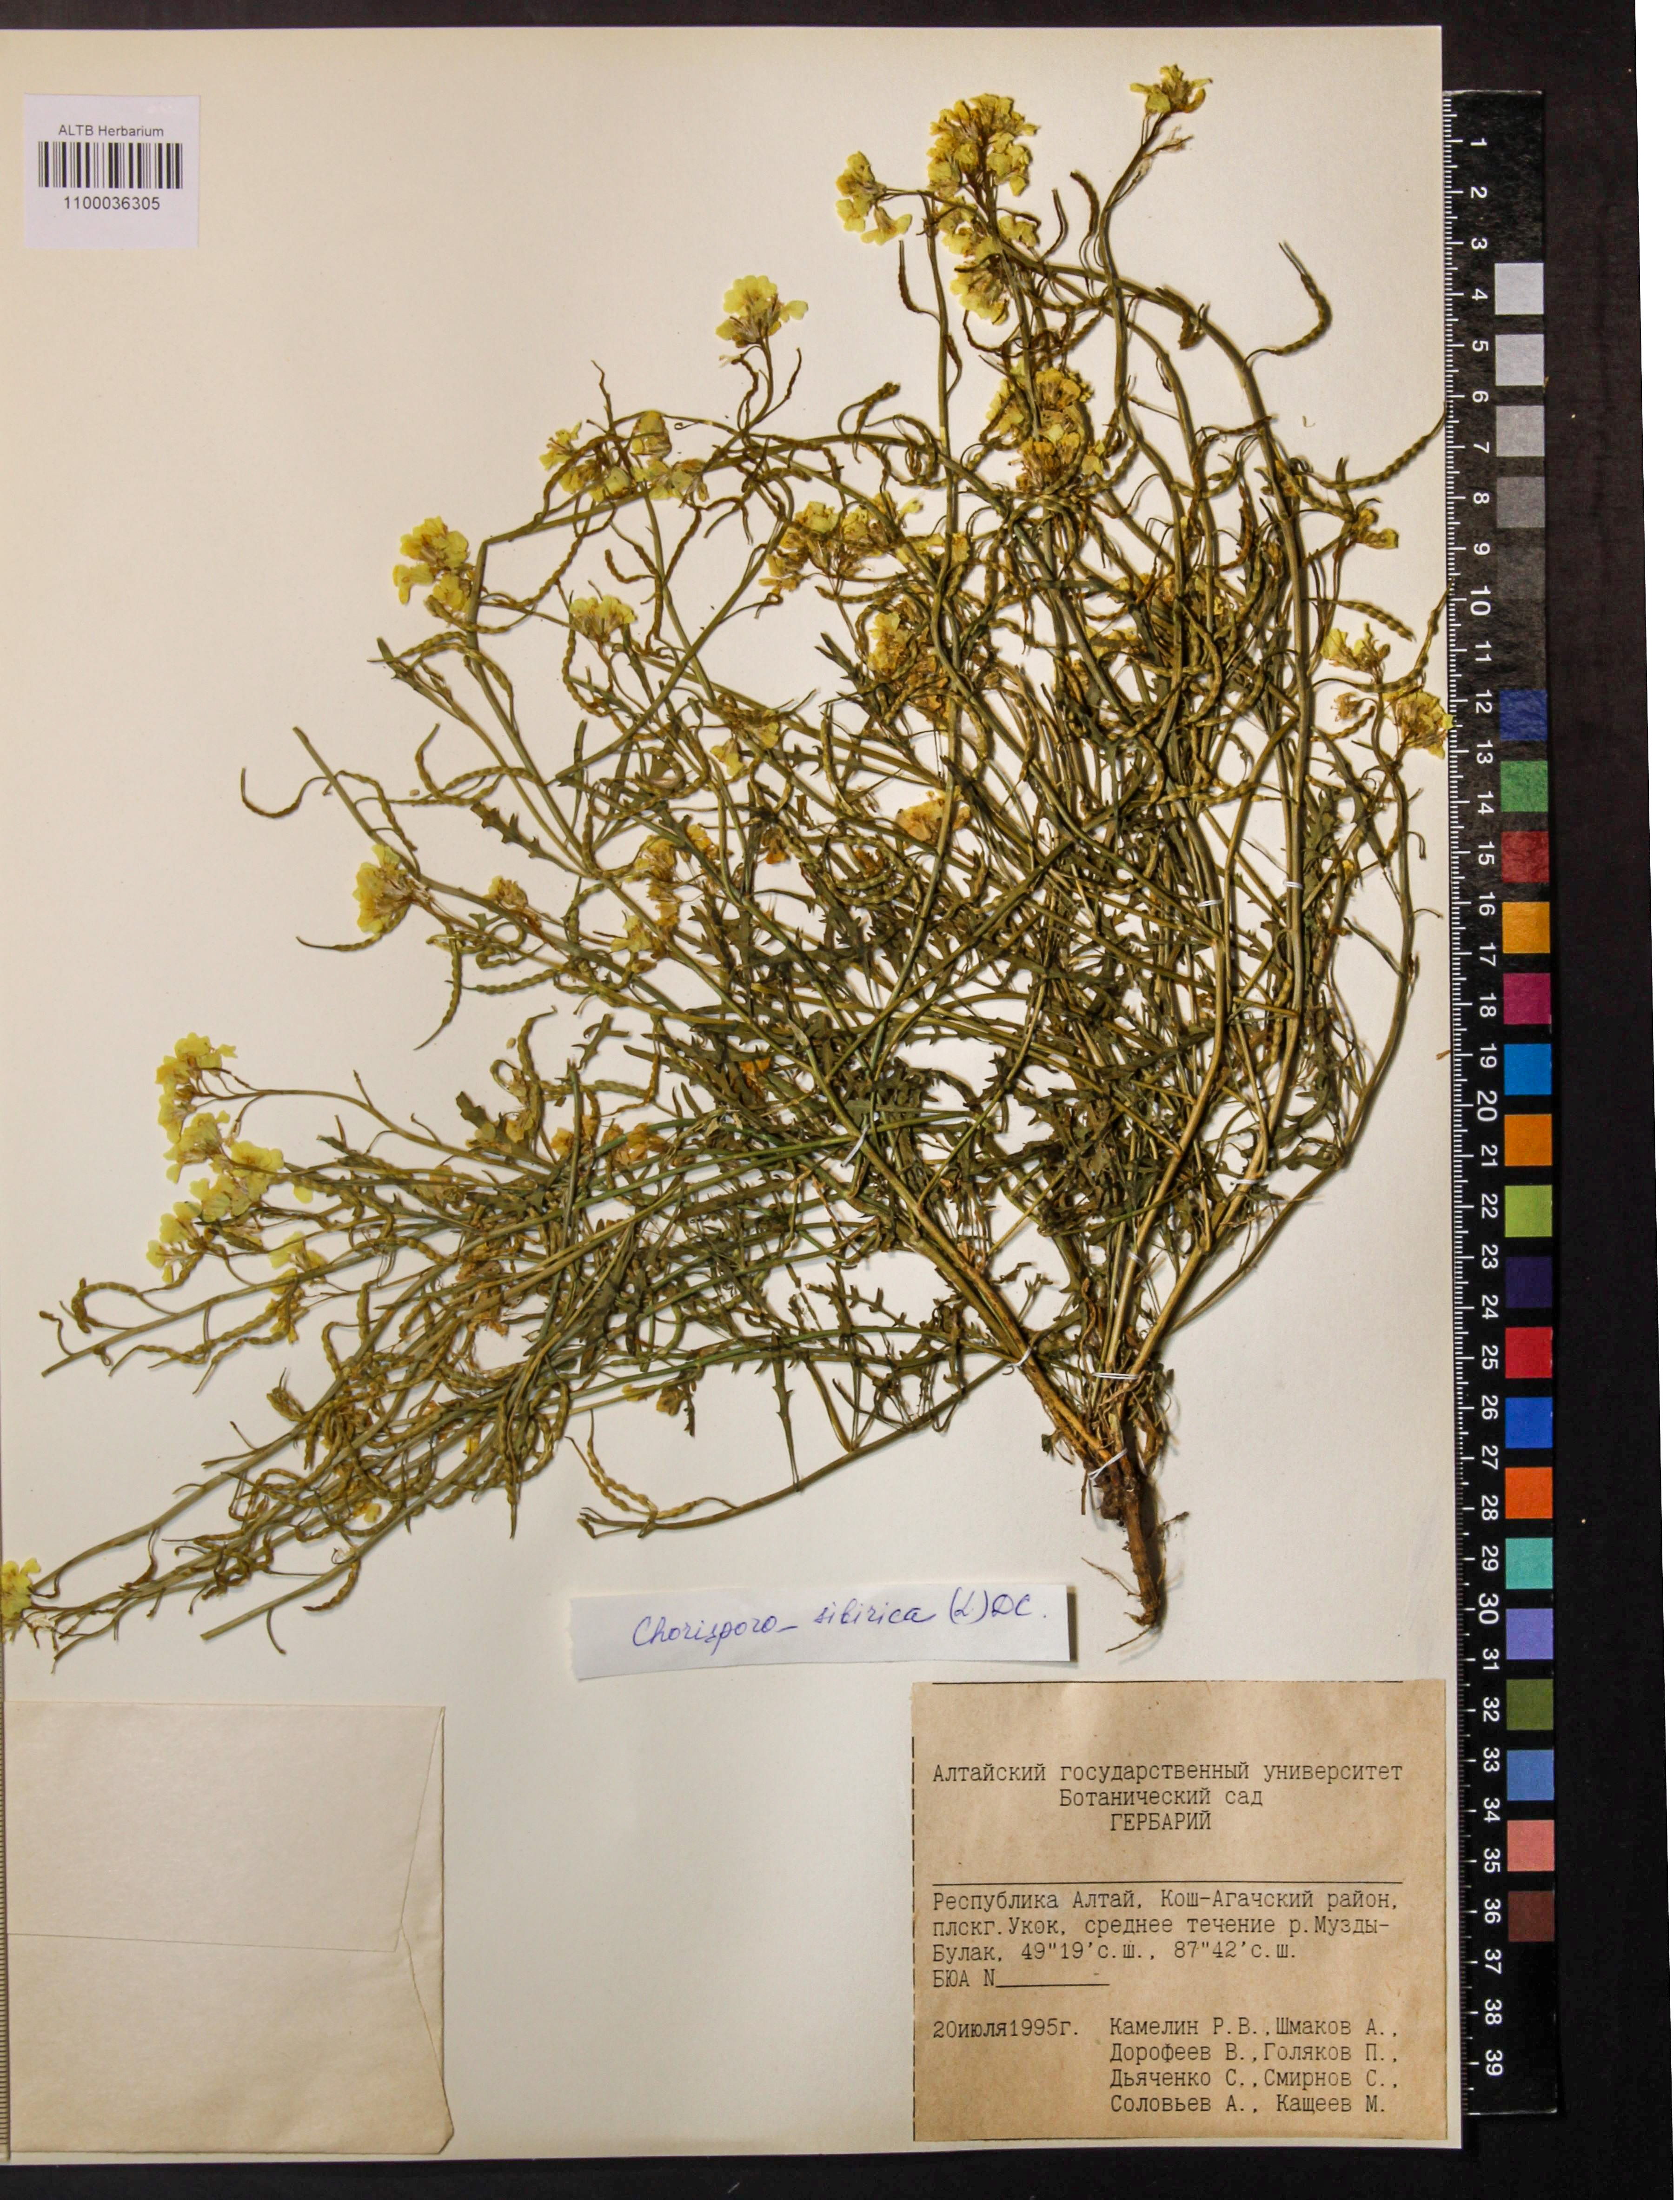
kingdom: Plantae
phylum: Tracheophyta
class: Magnoliopsida
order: Brassicales
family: Brassicaceae
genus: Chorispora
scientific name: Chorispora sibirica
